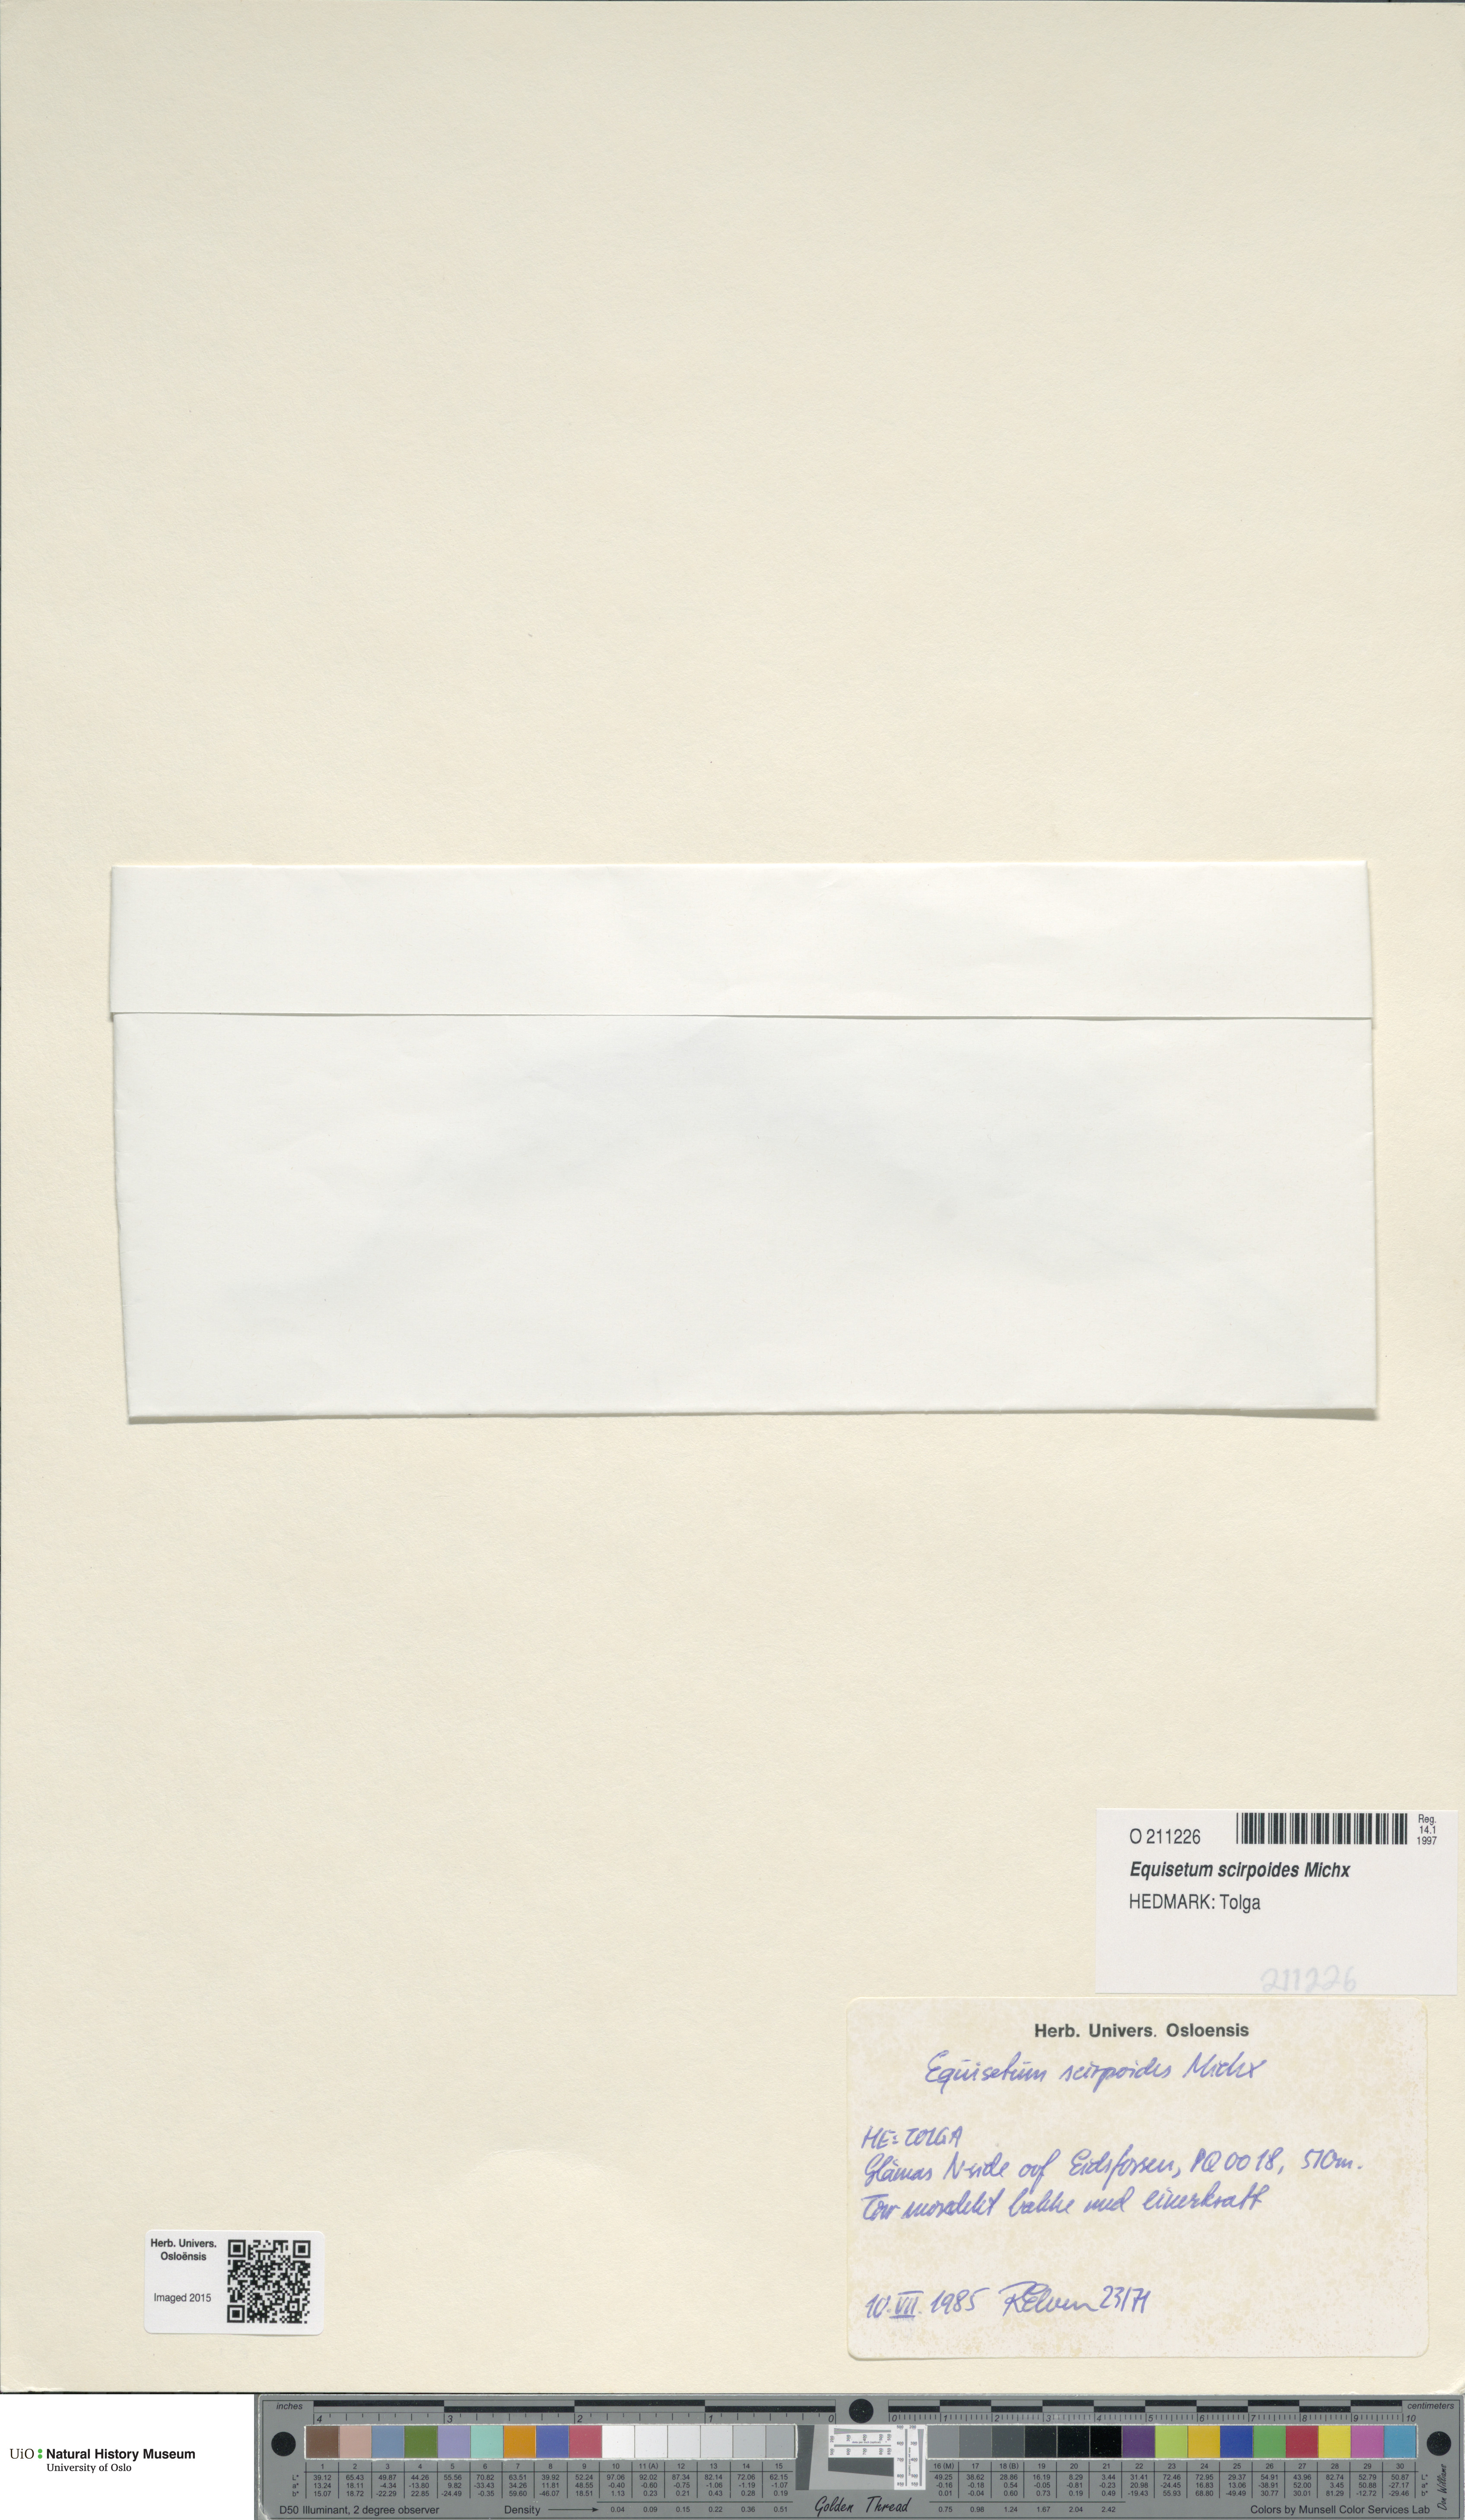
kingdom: Plantae
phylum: Tracheophyta
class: Polypodiopsida
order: Equisetales
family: Equisetaceae
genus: Equisetum
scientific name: Equisetum scirpoides
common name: Delicate horsetail
